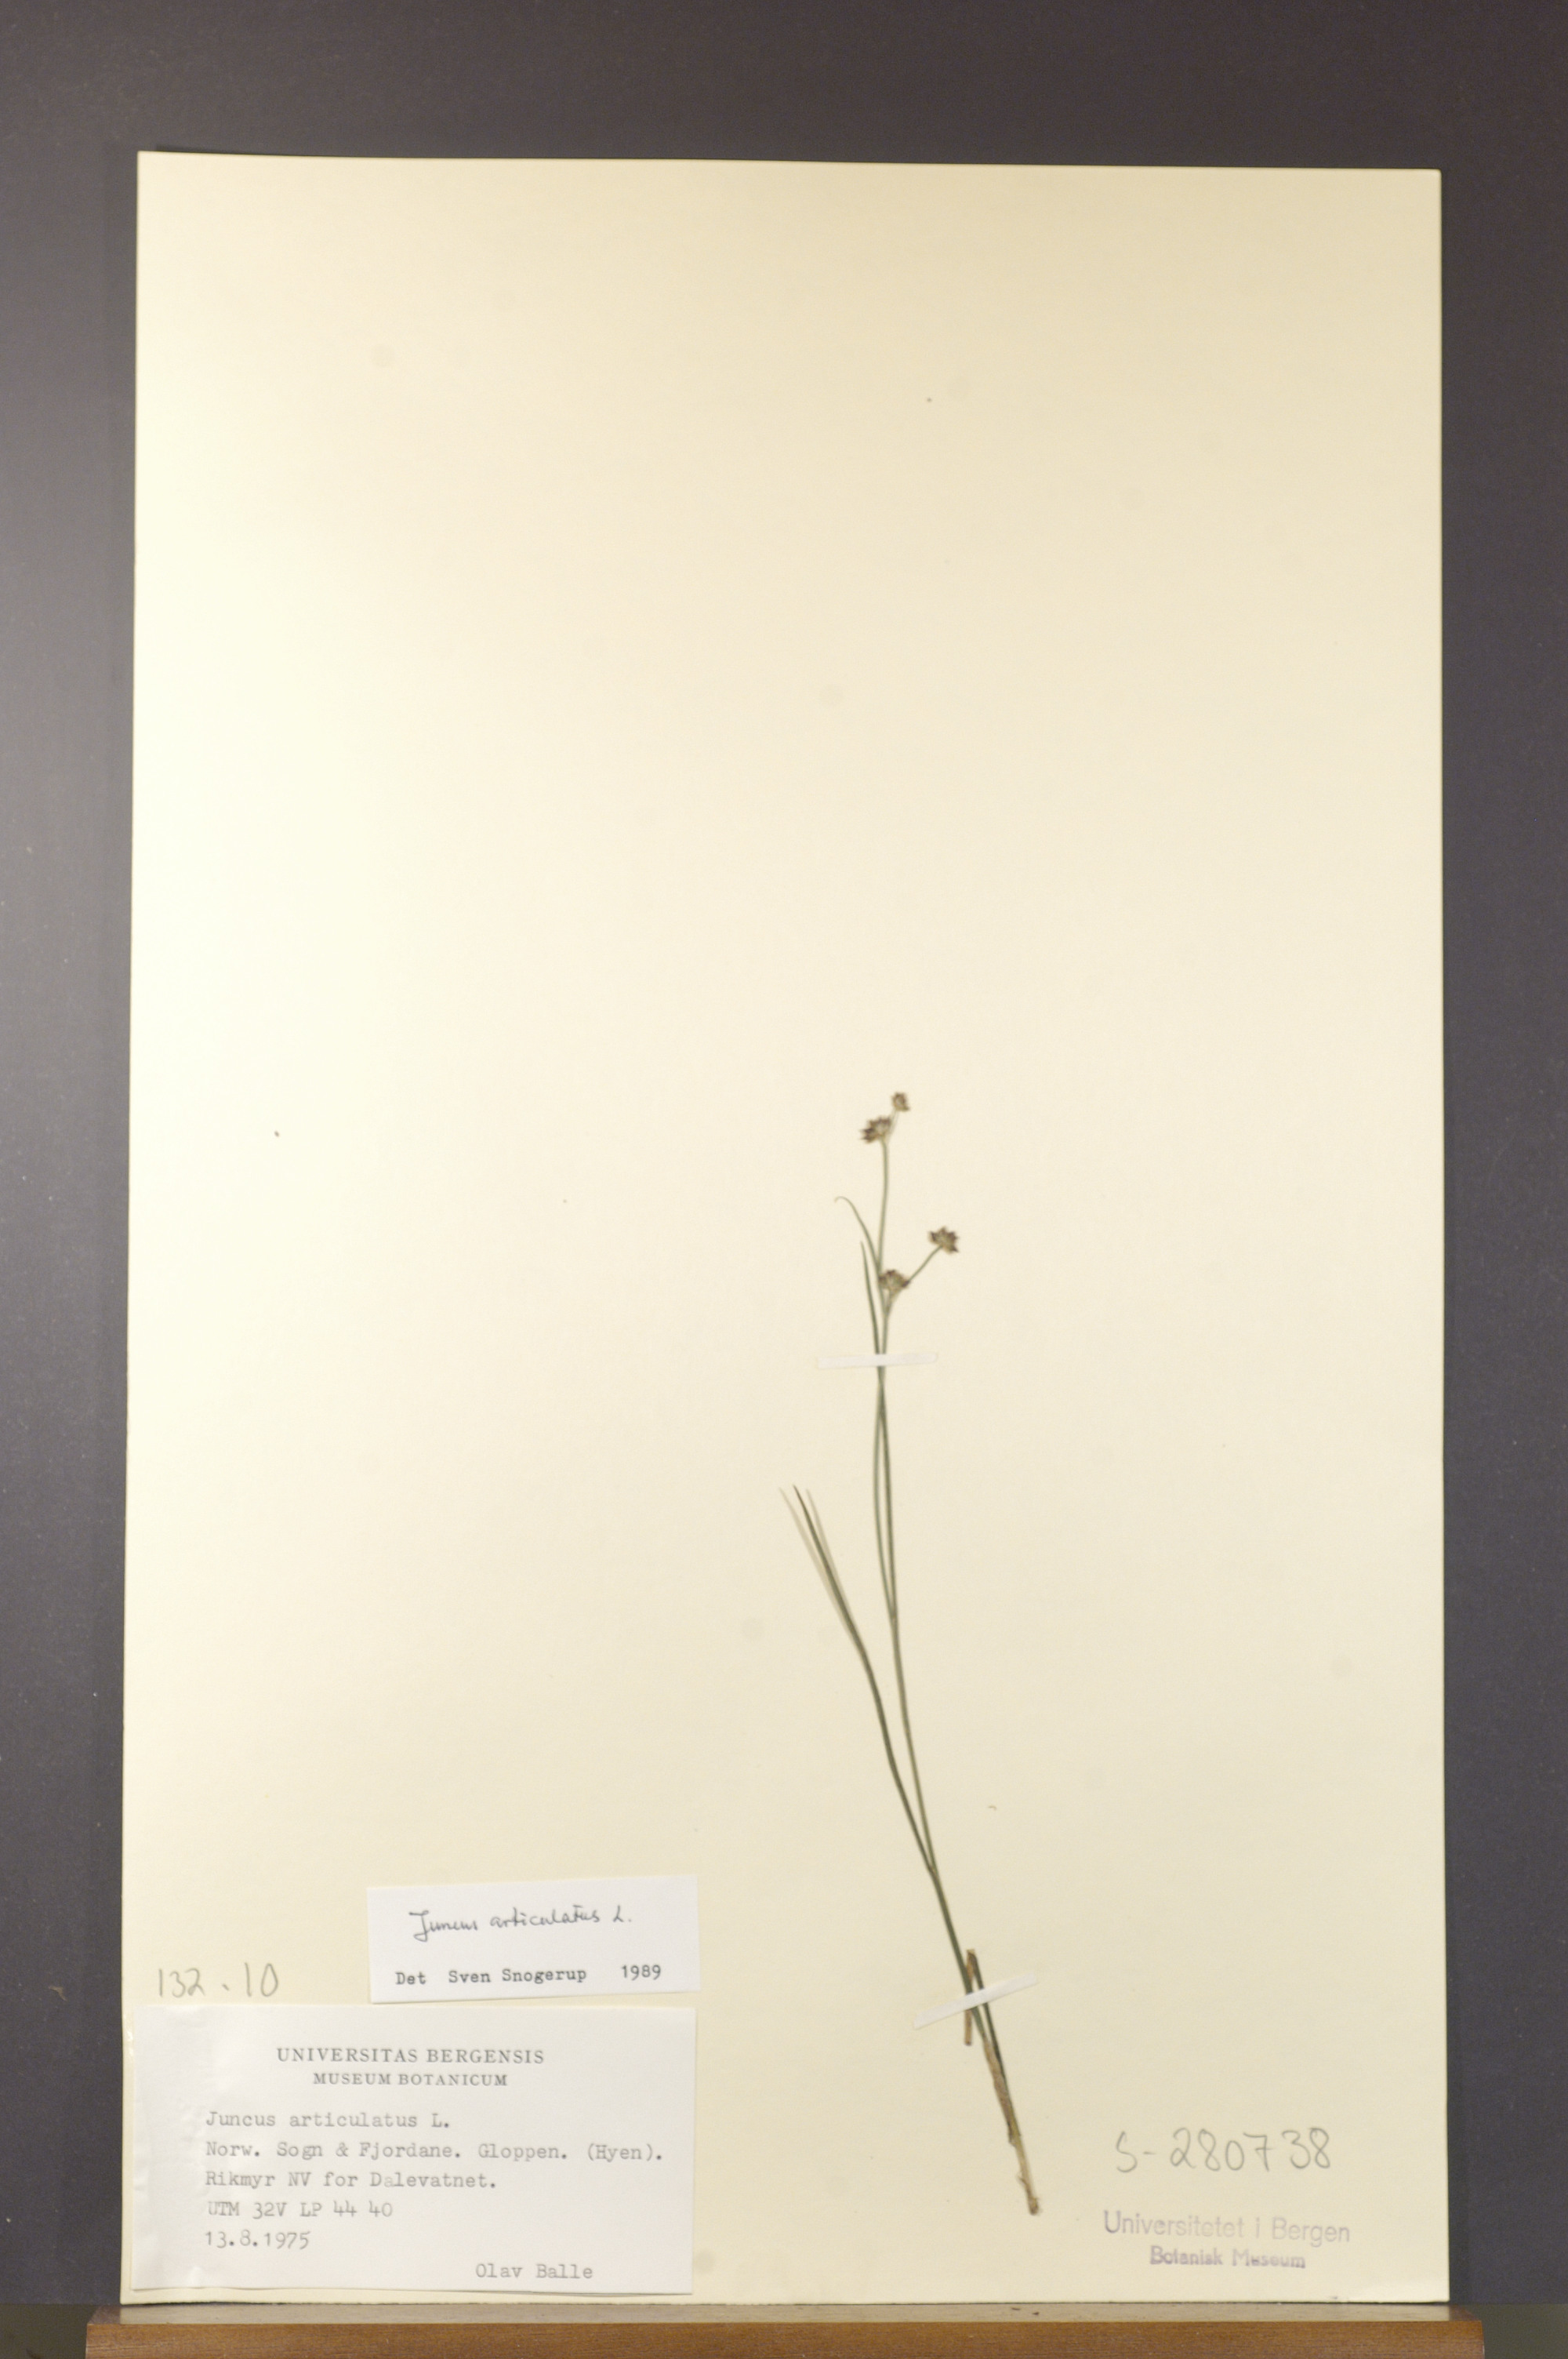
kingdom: Plantae
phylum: Tracheophyta
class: Liliopsida
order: Poales
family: Juncaceae
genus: Juncus
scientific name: Juncus articulatus
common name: Jointed rush
